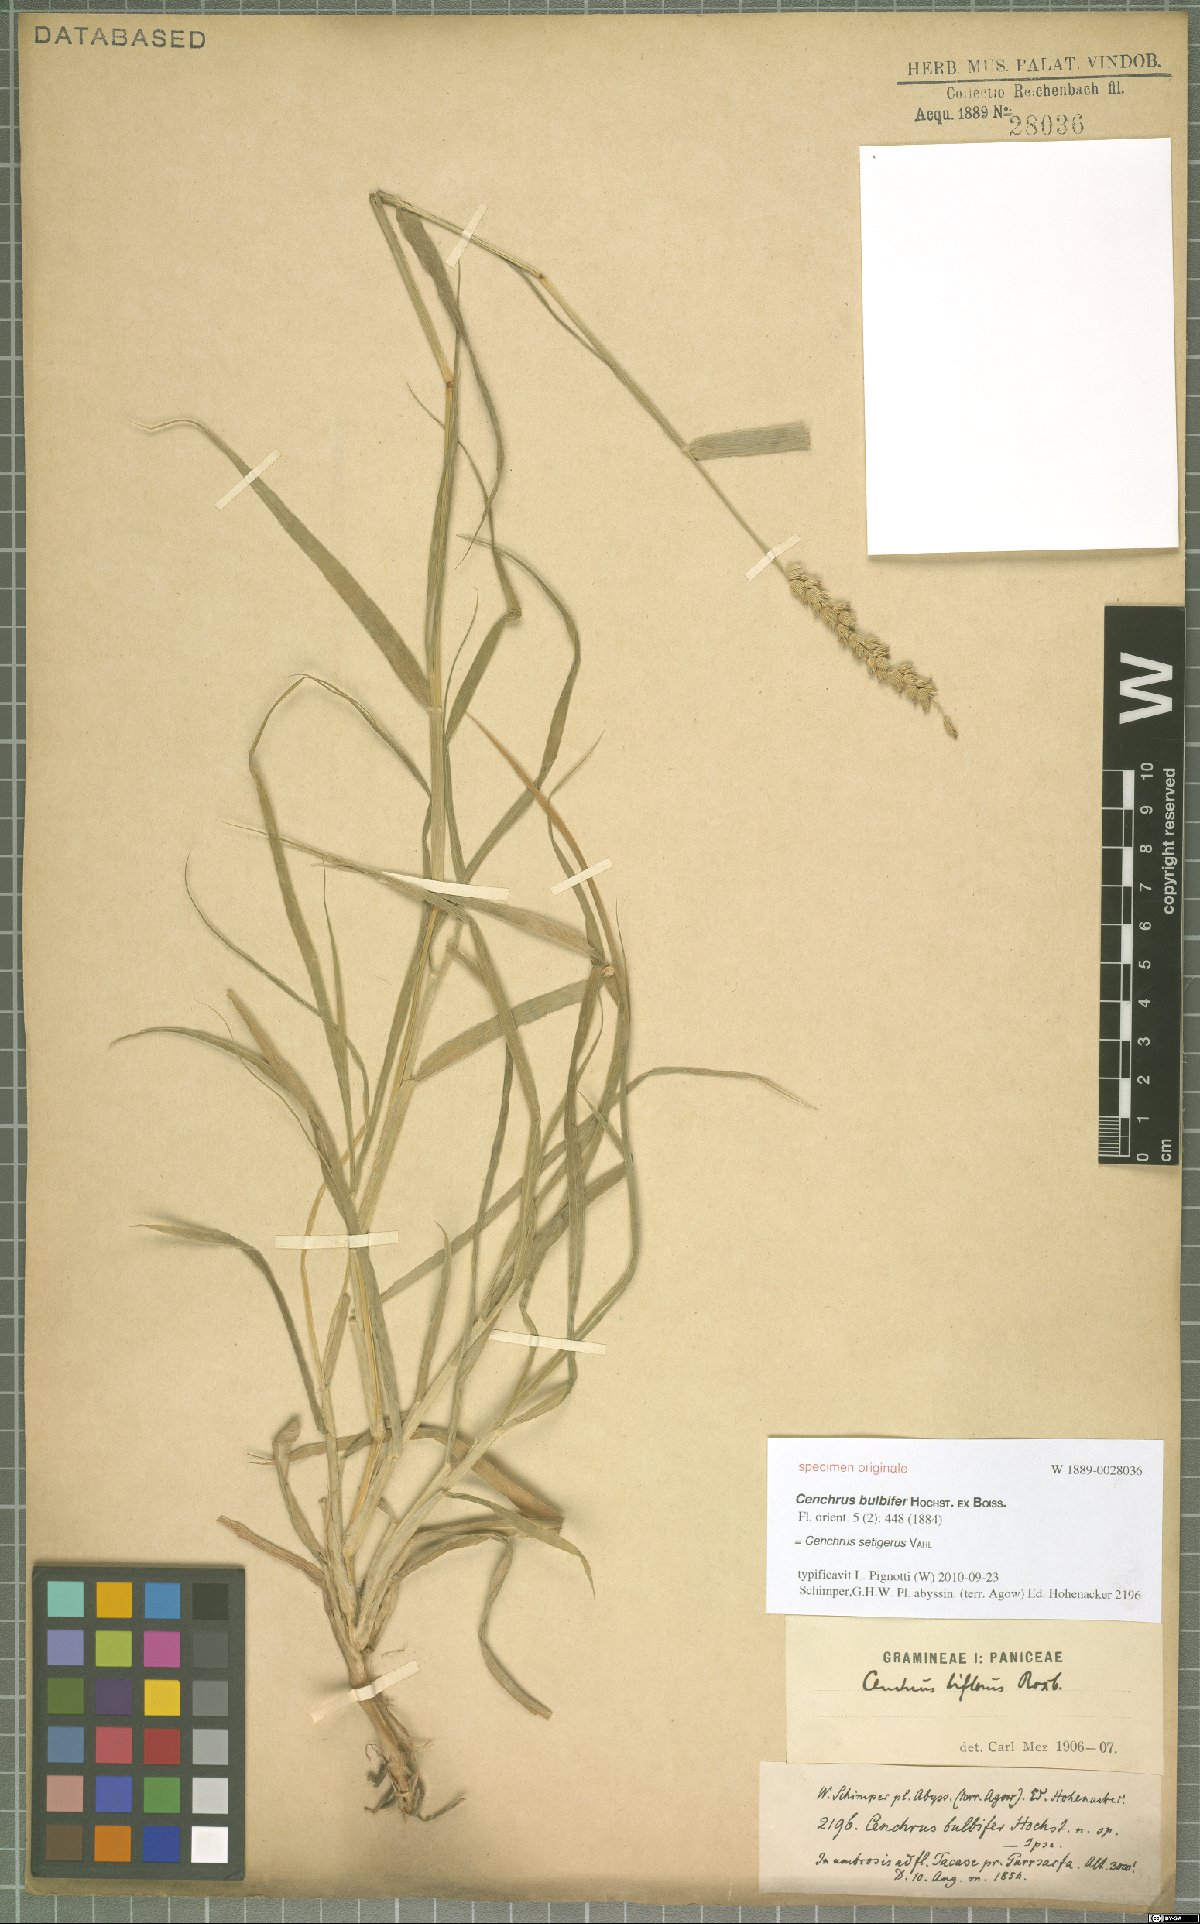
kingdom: Plantae
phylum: Tracheophyta
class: Liliopsida
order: Poales
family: Poaceae
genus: Cenchrus
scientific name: Cenchrus setigerus
